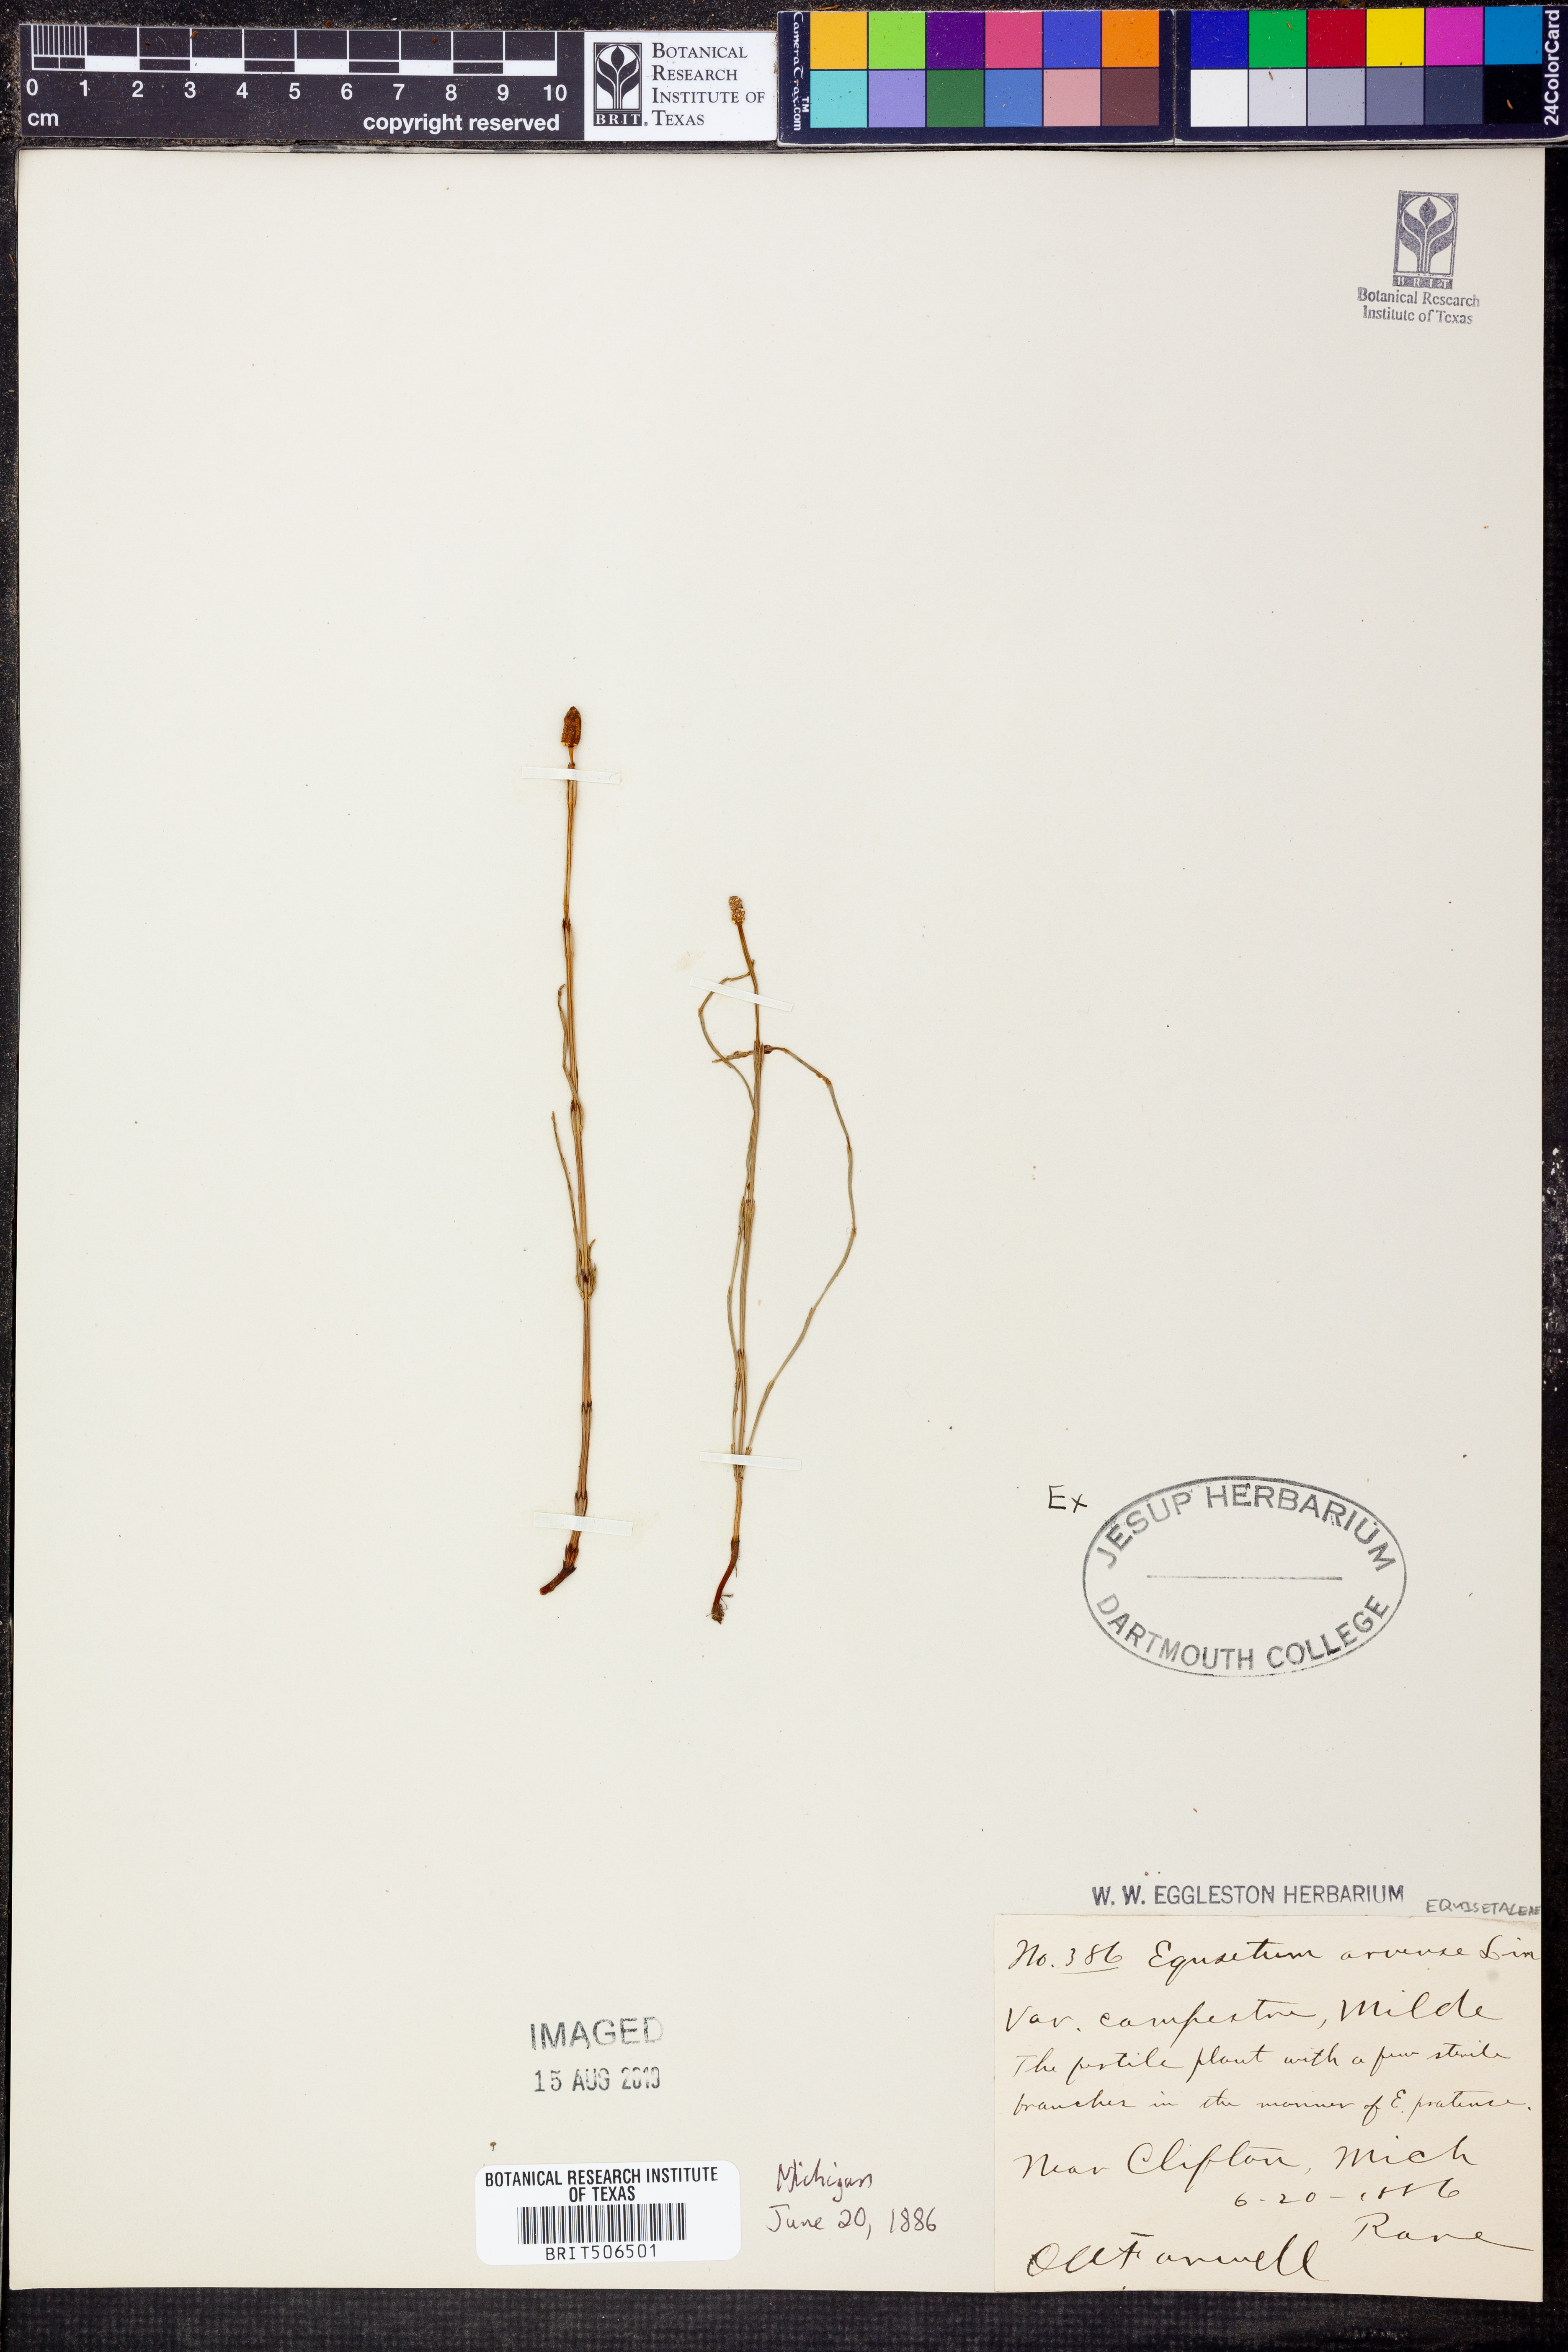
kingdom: Plantae
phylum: Tracheophyta
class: Polypodiopsida
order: Equisetales
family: Equisetaceae
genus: Equisetum
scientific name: Equisetum arvense
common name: Field horsetail
